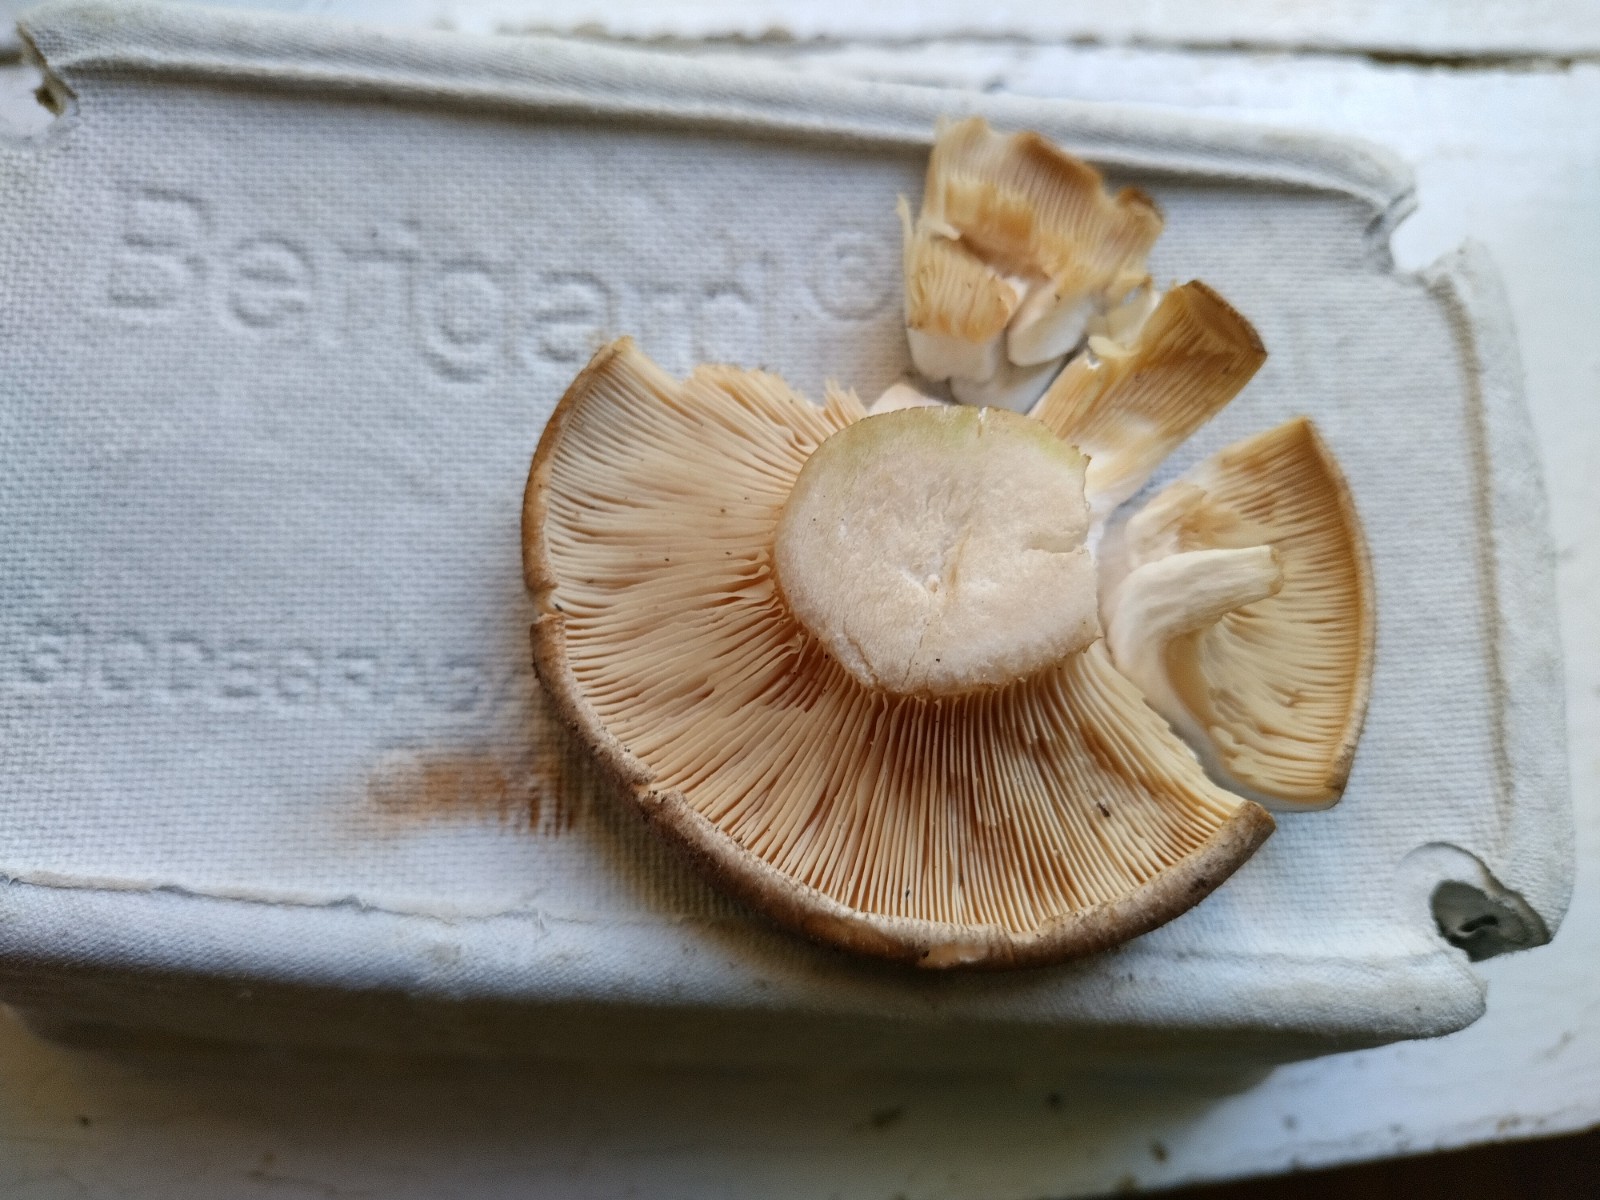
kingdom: Fungi
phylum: Basidiomycota
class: Agaricomycetes
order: Agaricales
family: Tricholomataceae
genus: Clitocybe
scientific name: Clitocybe nebularis
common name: tåge-tragthat
